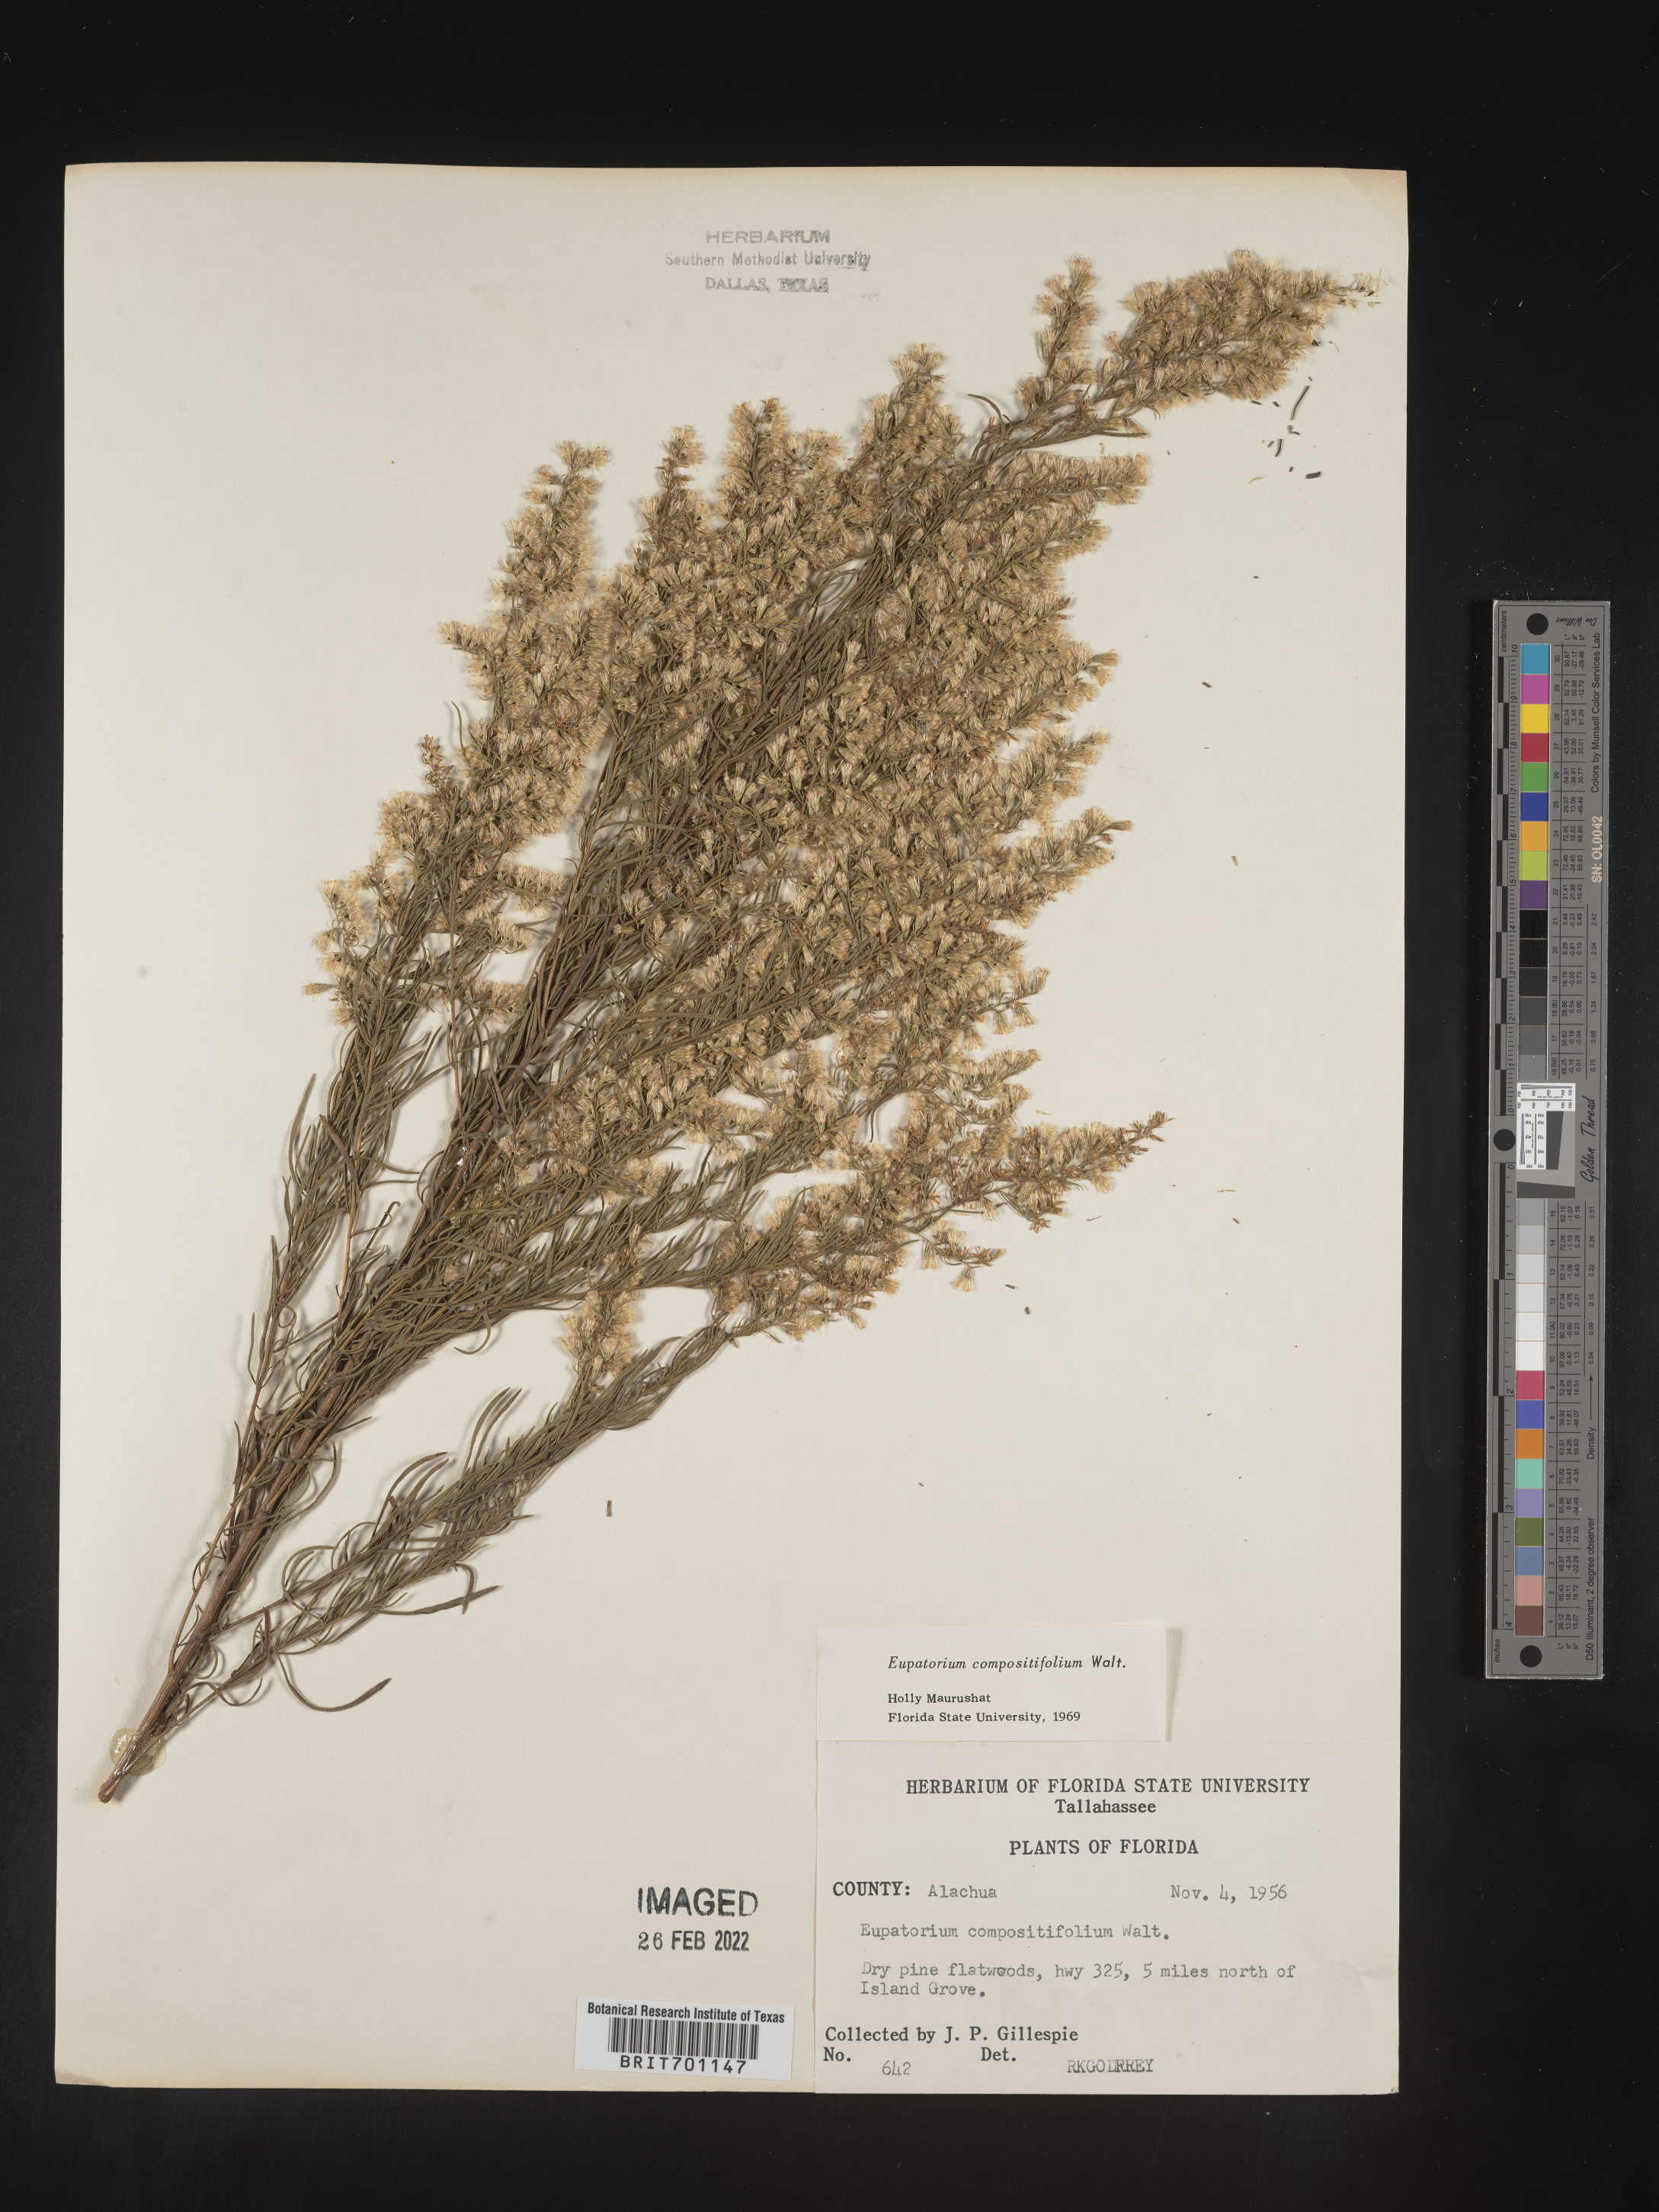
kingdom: Plantae
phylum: Tracheophyta
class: Magnoliopsida
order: Asterales
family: Asteraceae
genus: Eupatorium
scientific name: Eupatorium compositifolium
